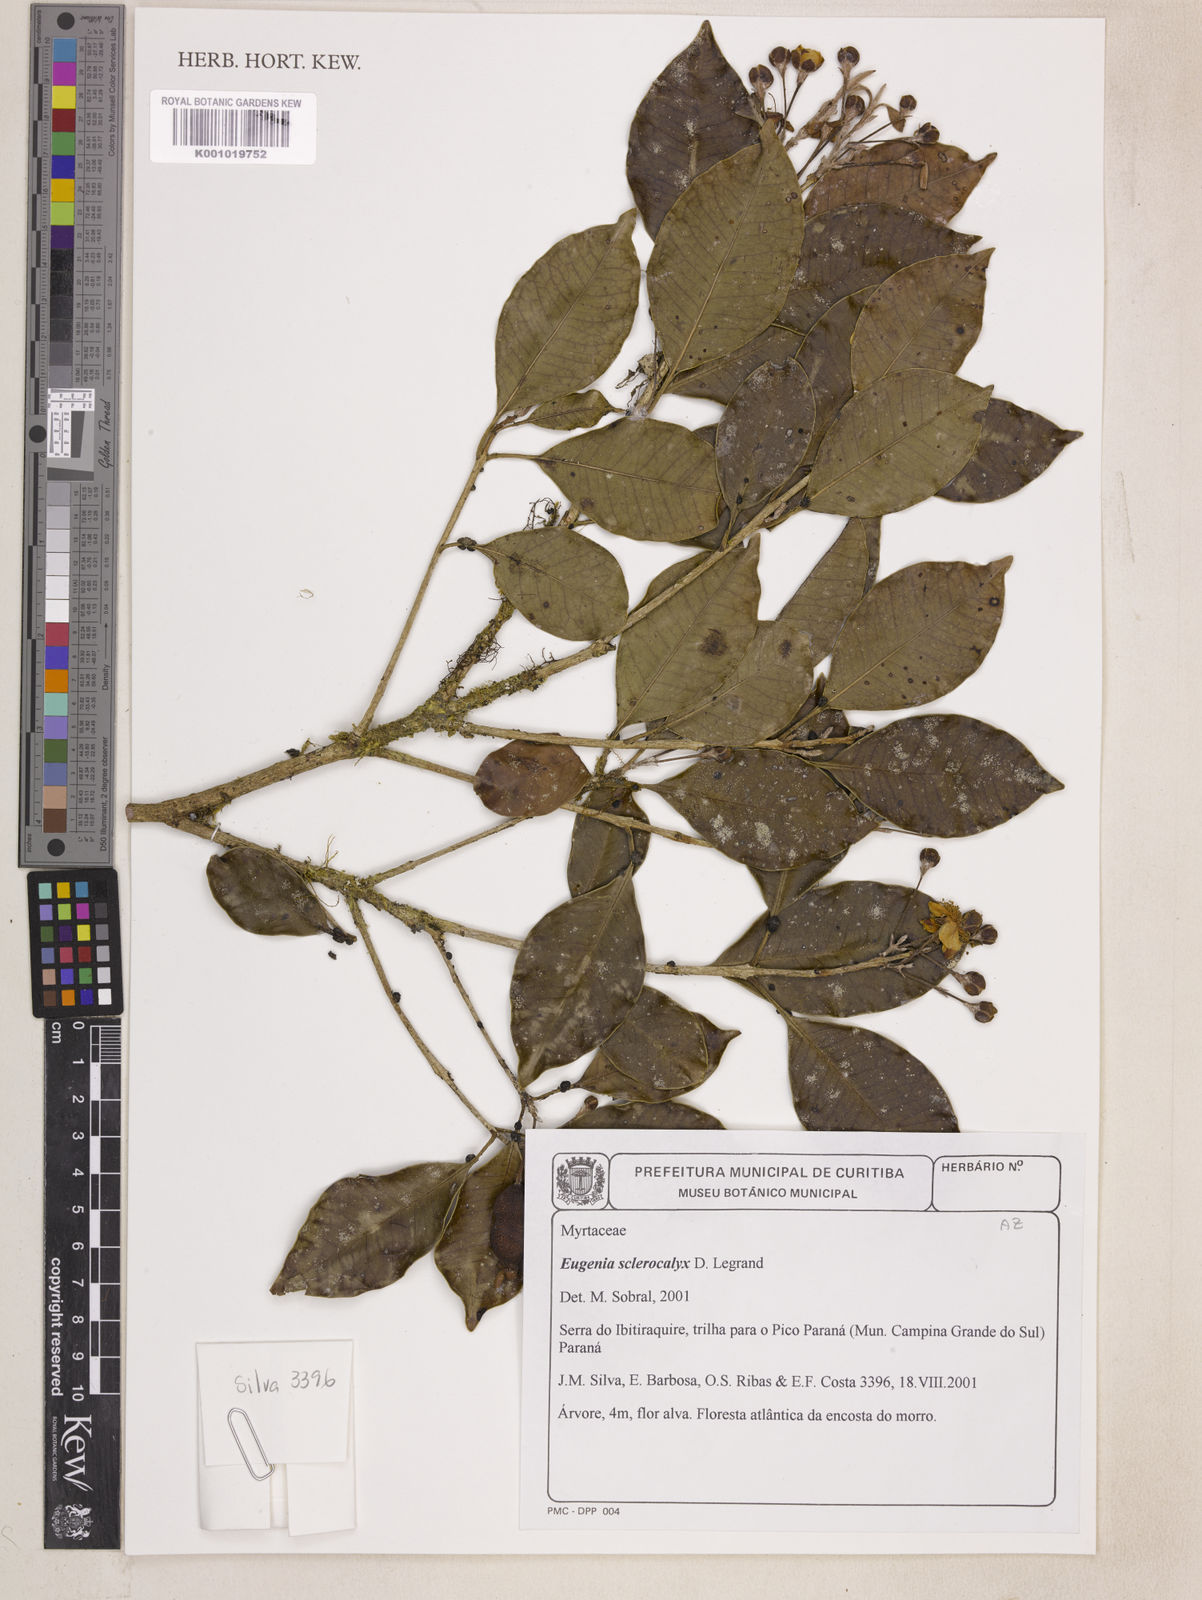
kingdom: Plantae
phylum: Tracheophyta
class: Magnoliopsida
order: Myrtales
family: Myrtaceae
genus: Eugenia
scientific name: Eugenia sclerocalyx
